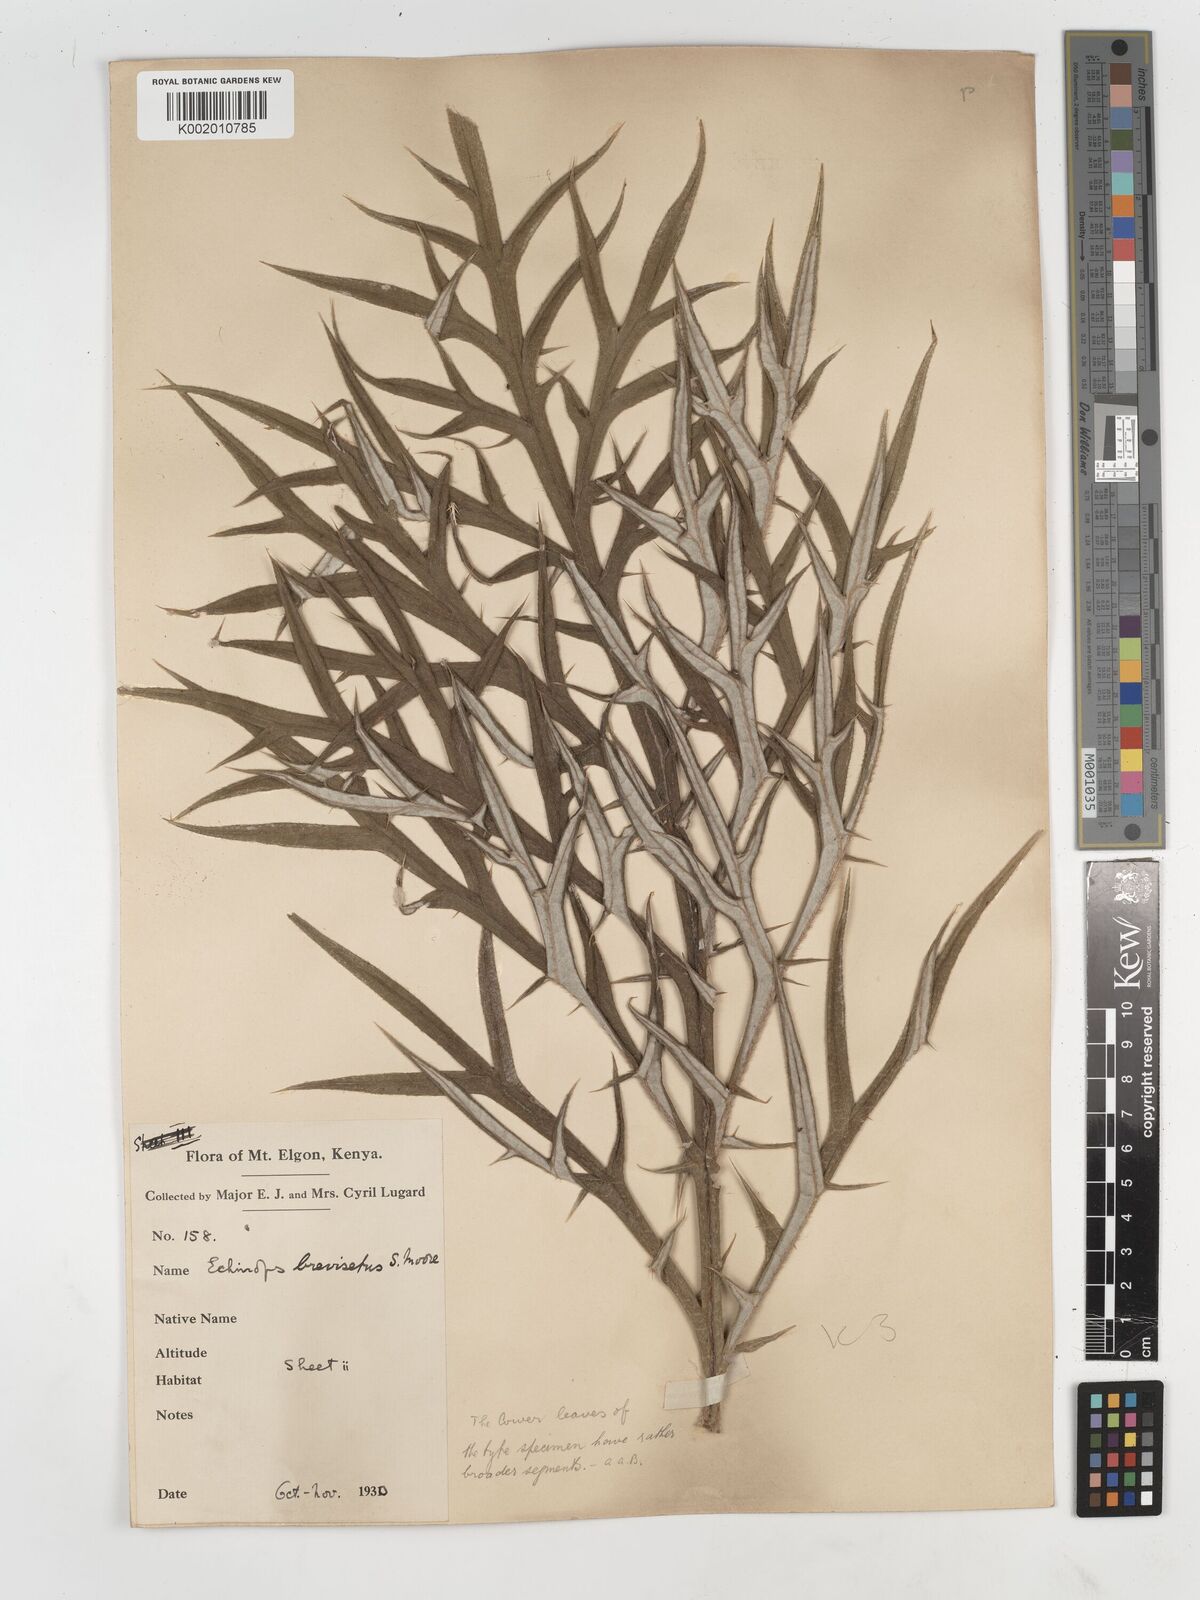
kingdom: Plantae
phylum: Tracheophyta
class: Magnoliopsida
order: Asterales
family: Asteraceae
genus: Echinops
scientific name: Echinops hispidus
